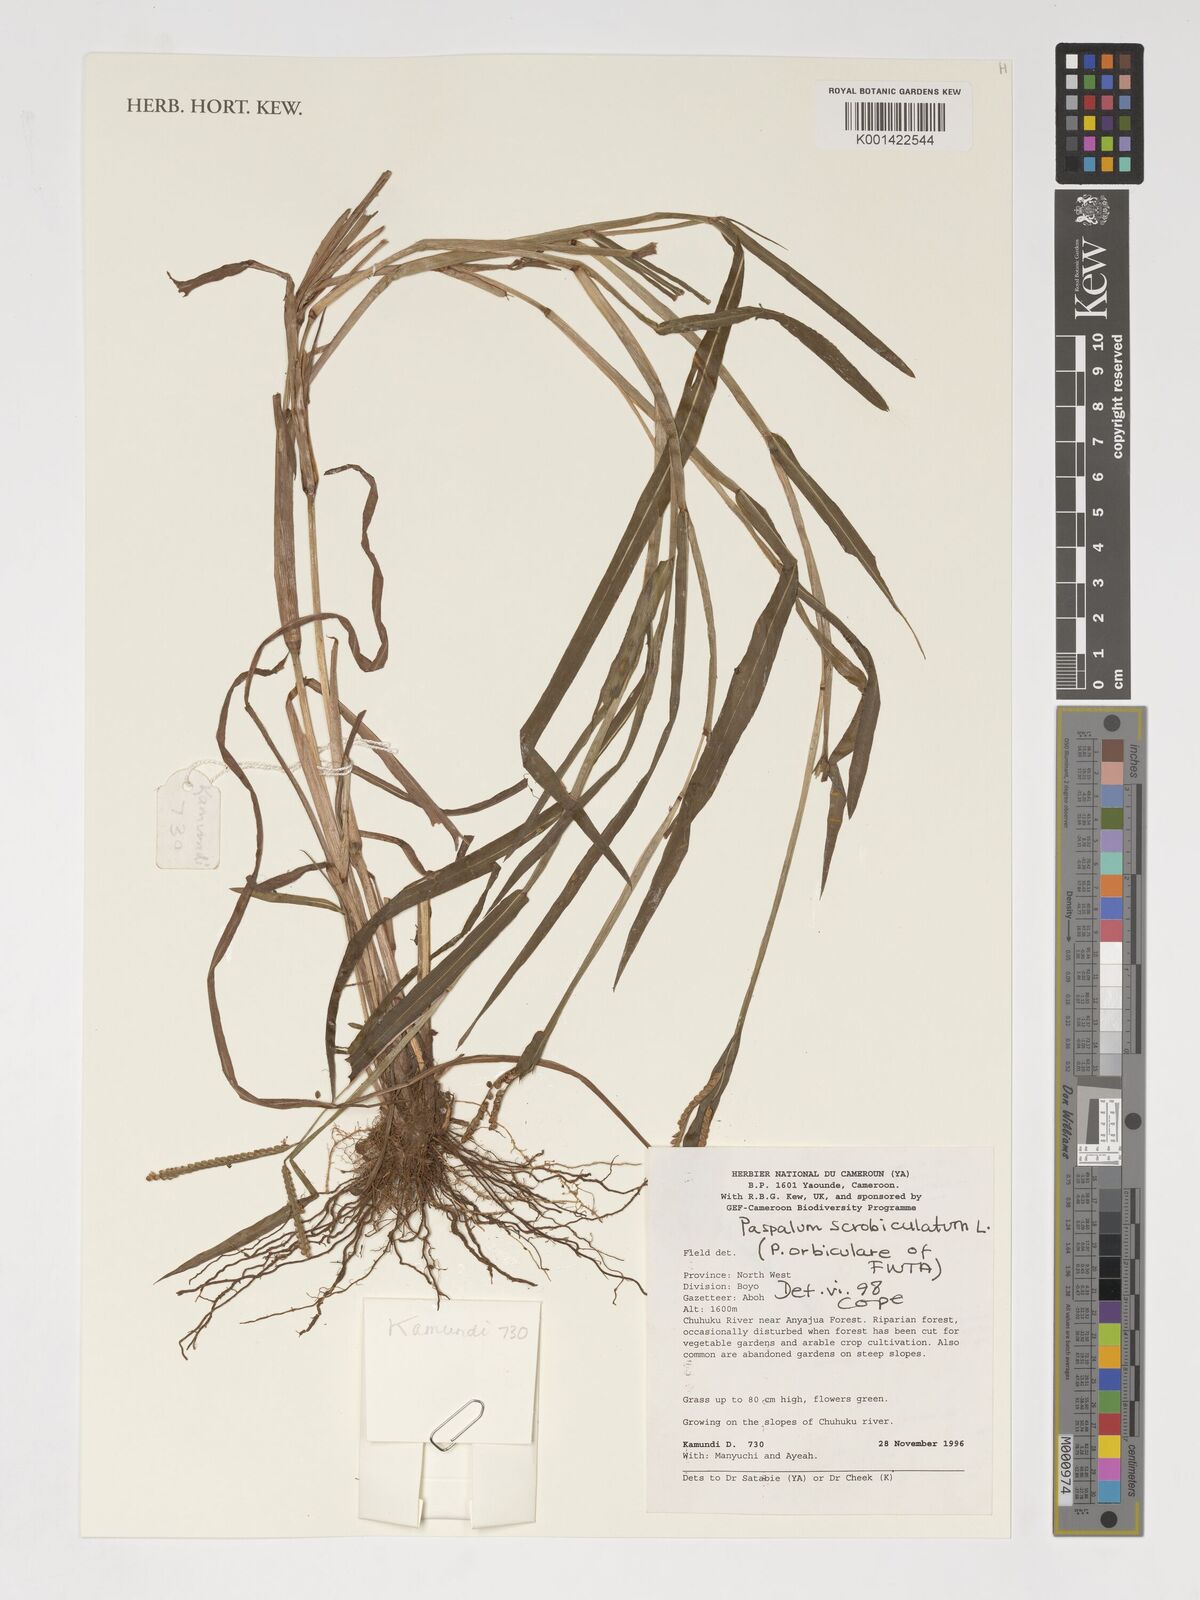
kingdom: Plantae
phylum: Tracheophyta
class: Liliopsida
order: Poales
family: Poaceae
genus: Paspalum
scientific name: Paspalum scrobiculatum
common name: Kodo millet
